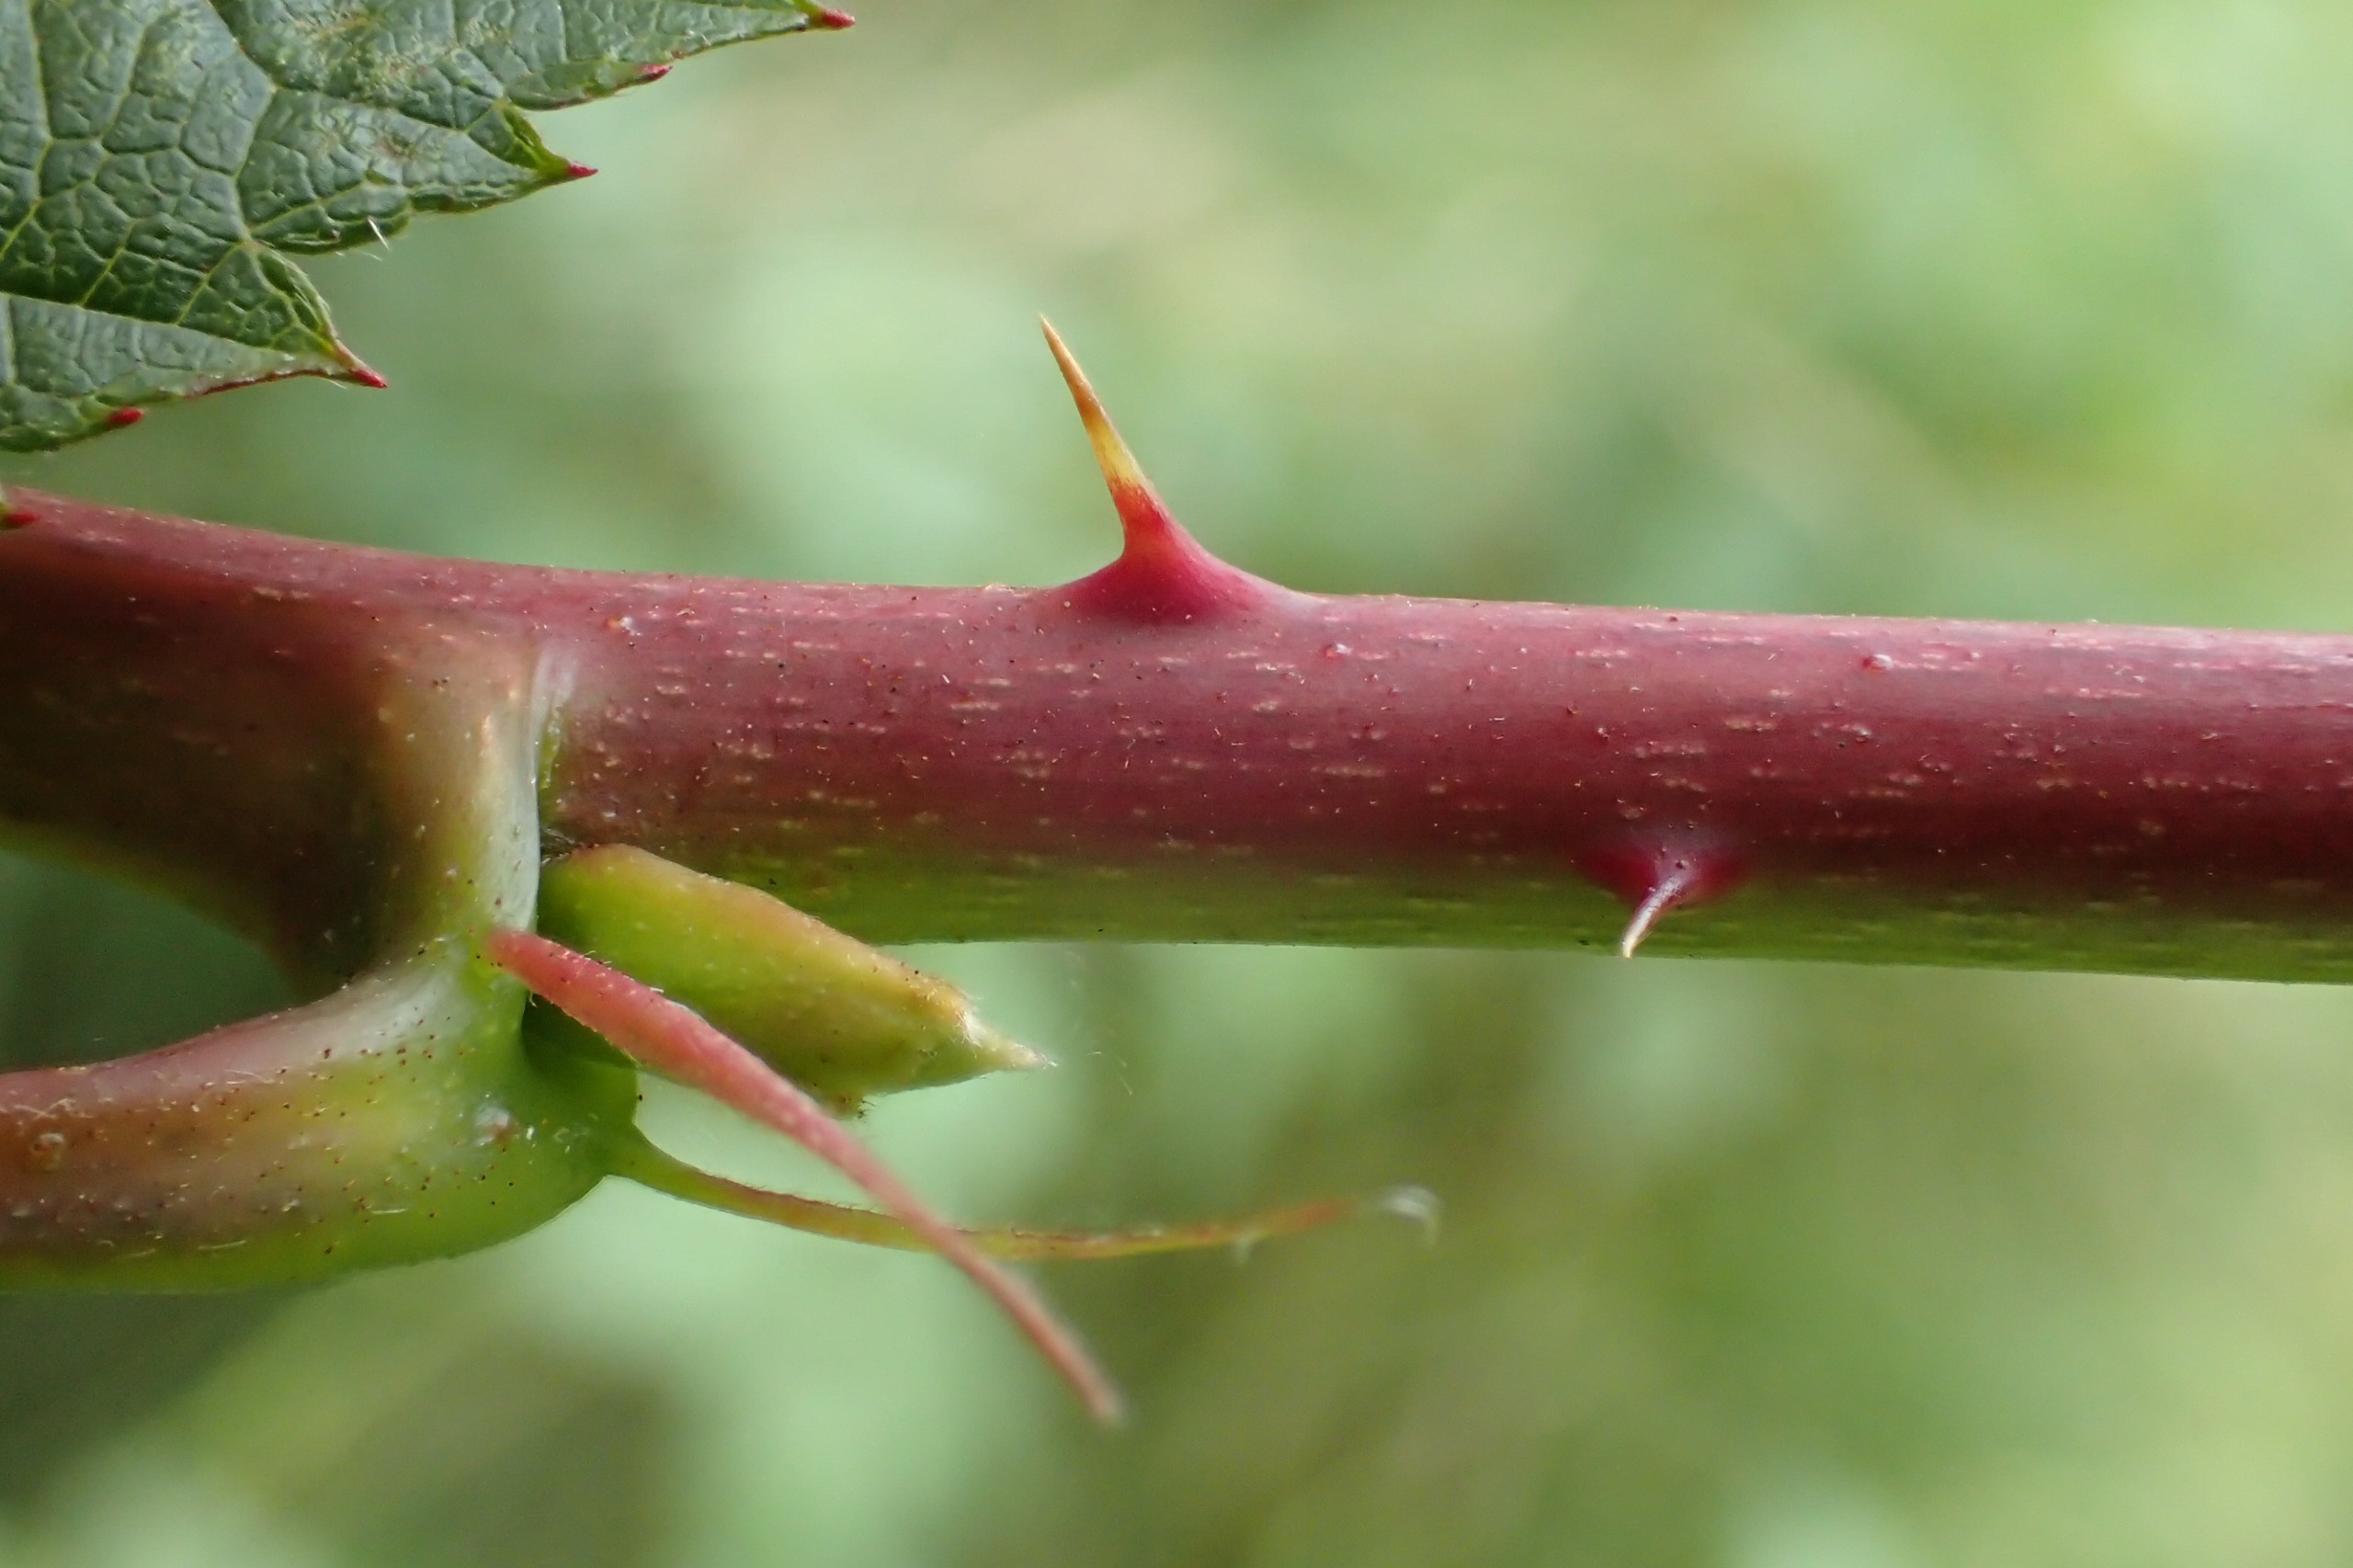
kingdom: Plantae
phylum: Tracheophyta
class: Magnoliopsida
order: Rosales
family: Rosaceae
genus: Rubus
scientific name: Rubus polonicus
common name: Skov-brombær
